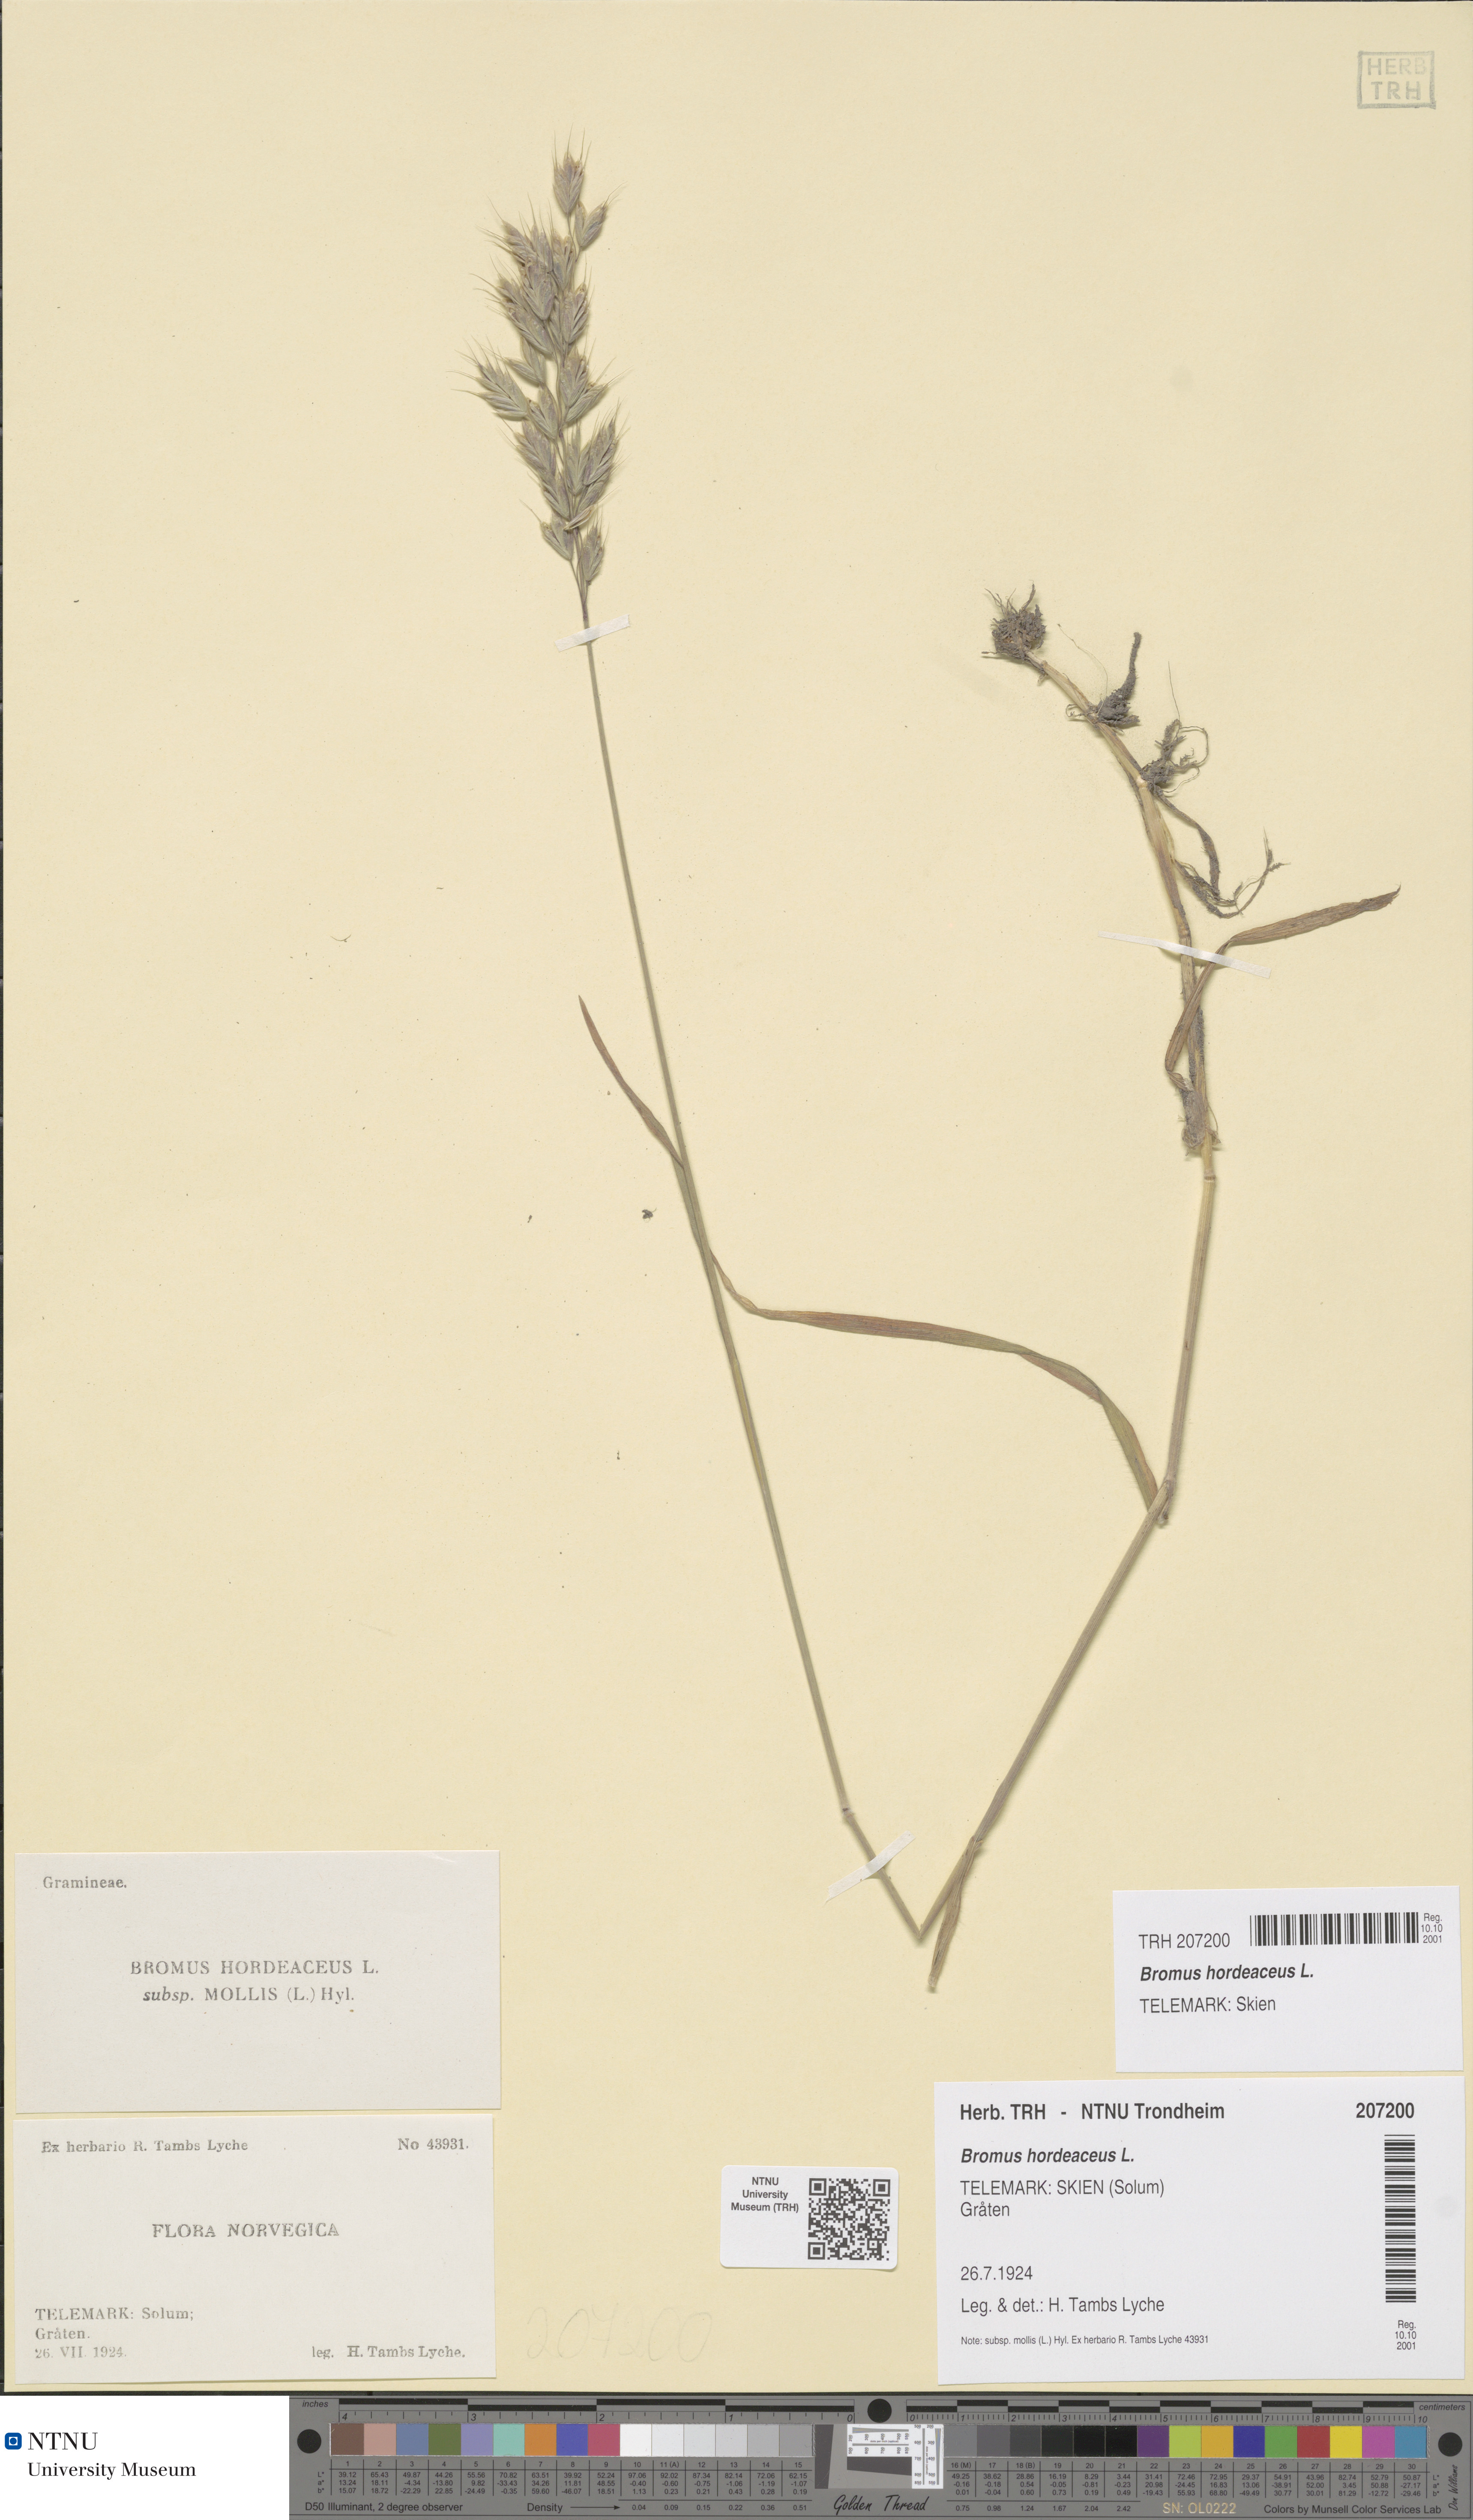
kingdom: Plantae
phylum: Tracheophyta
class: Liliopsida
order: Poales
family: Poaceae
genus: Bromus
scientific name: Bromus hordeaceus
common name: Soft brome
